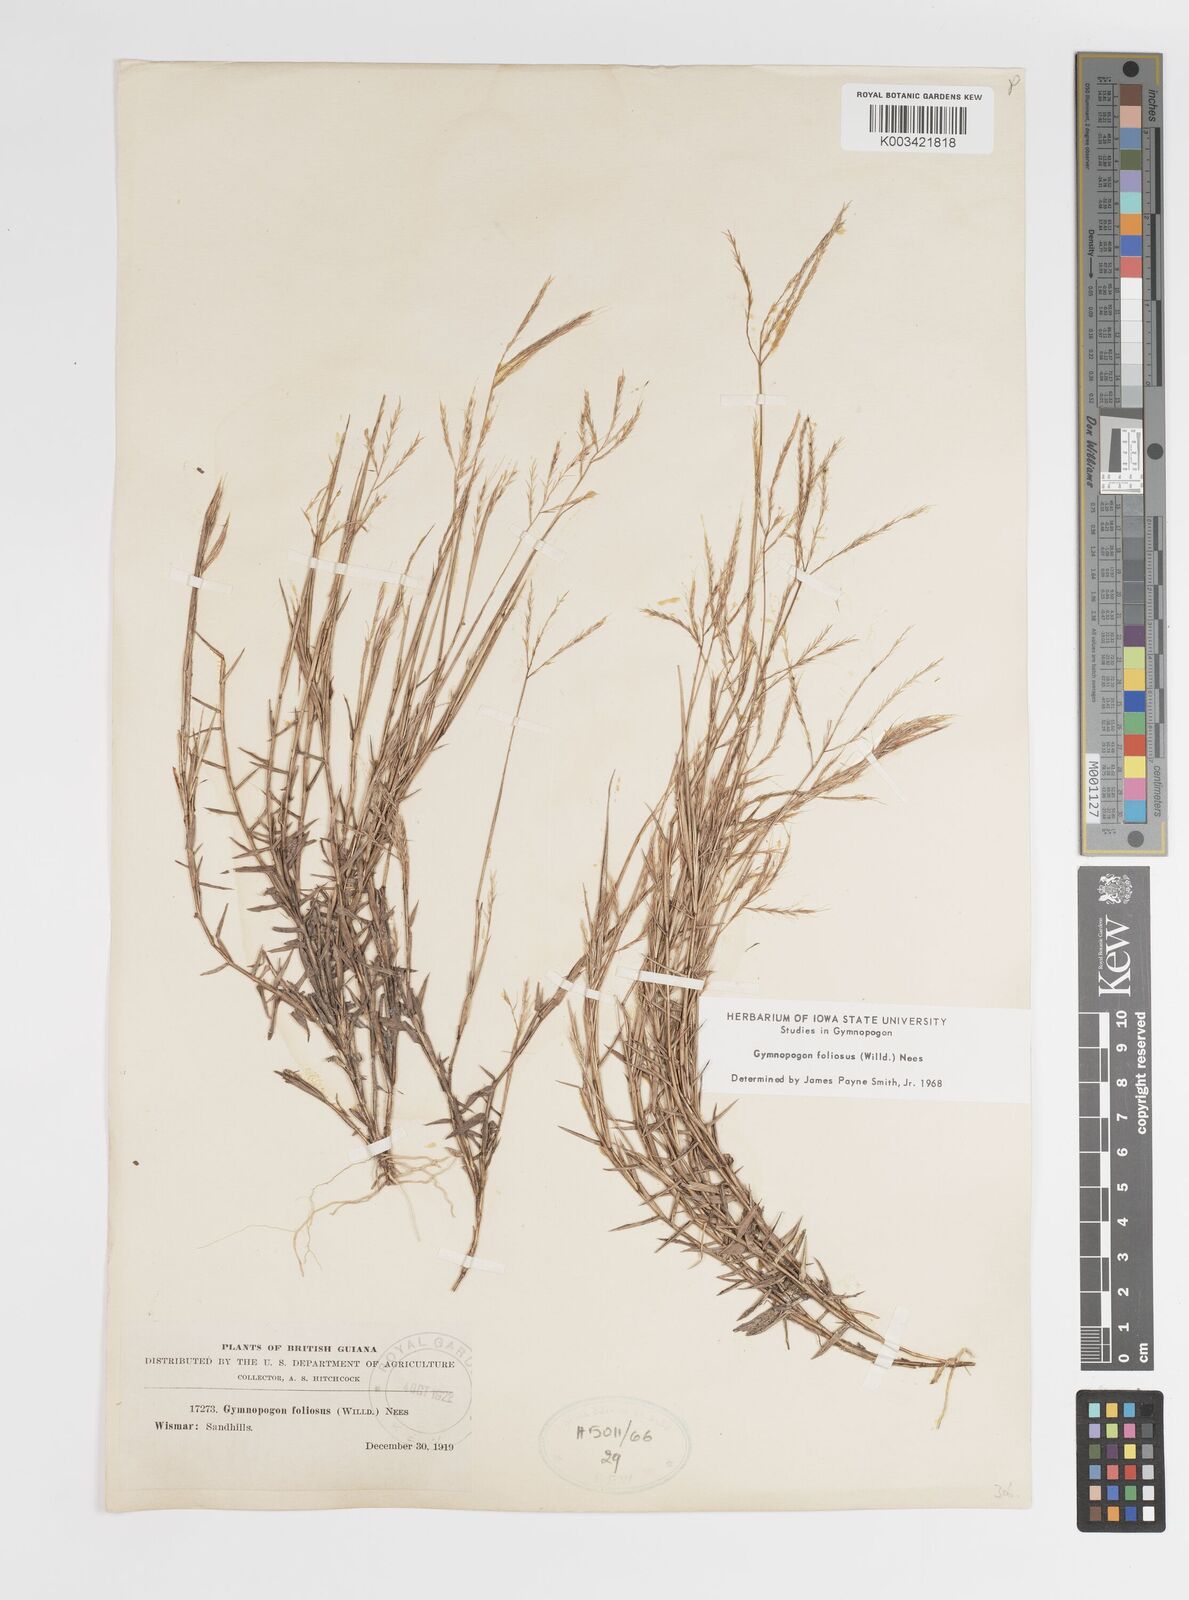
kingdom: Plantae
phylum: Tracheophyta
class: Liliopsida
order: Poales
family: Poaceae
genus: Gymnopogon
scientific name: Gymnopogon foliosus
